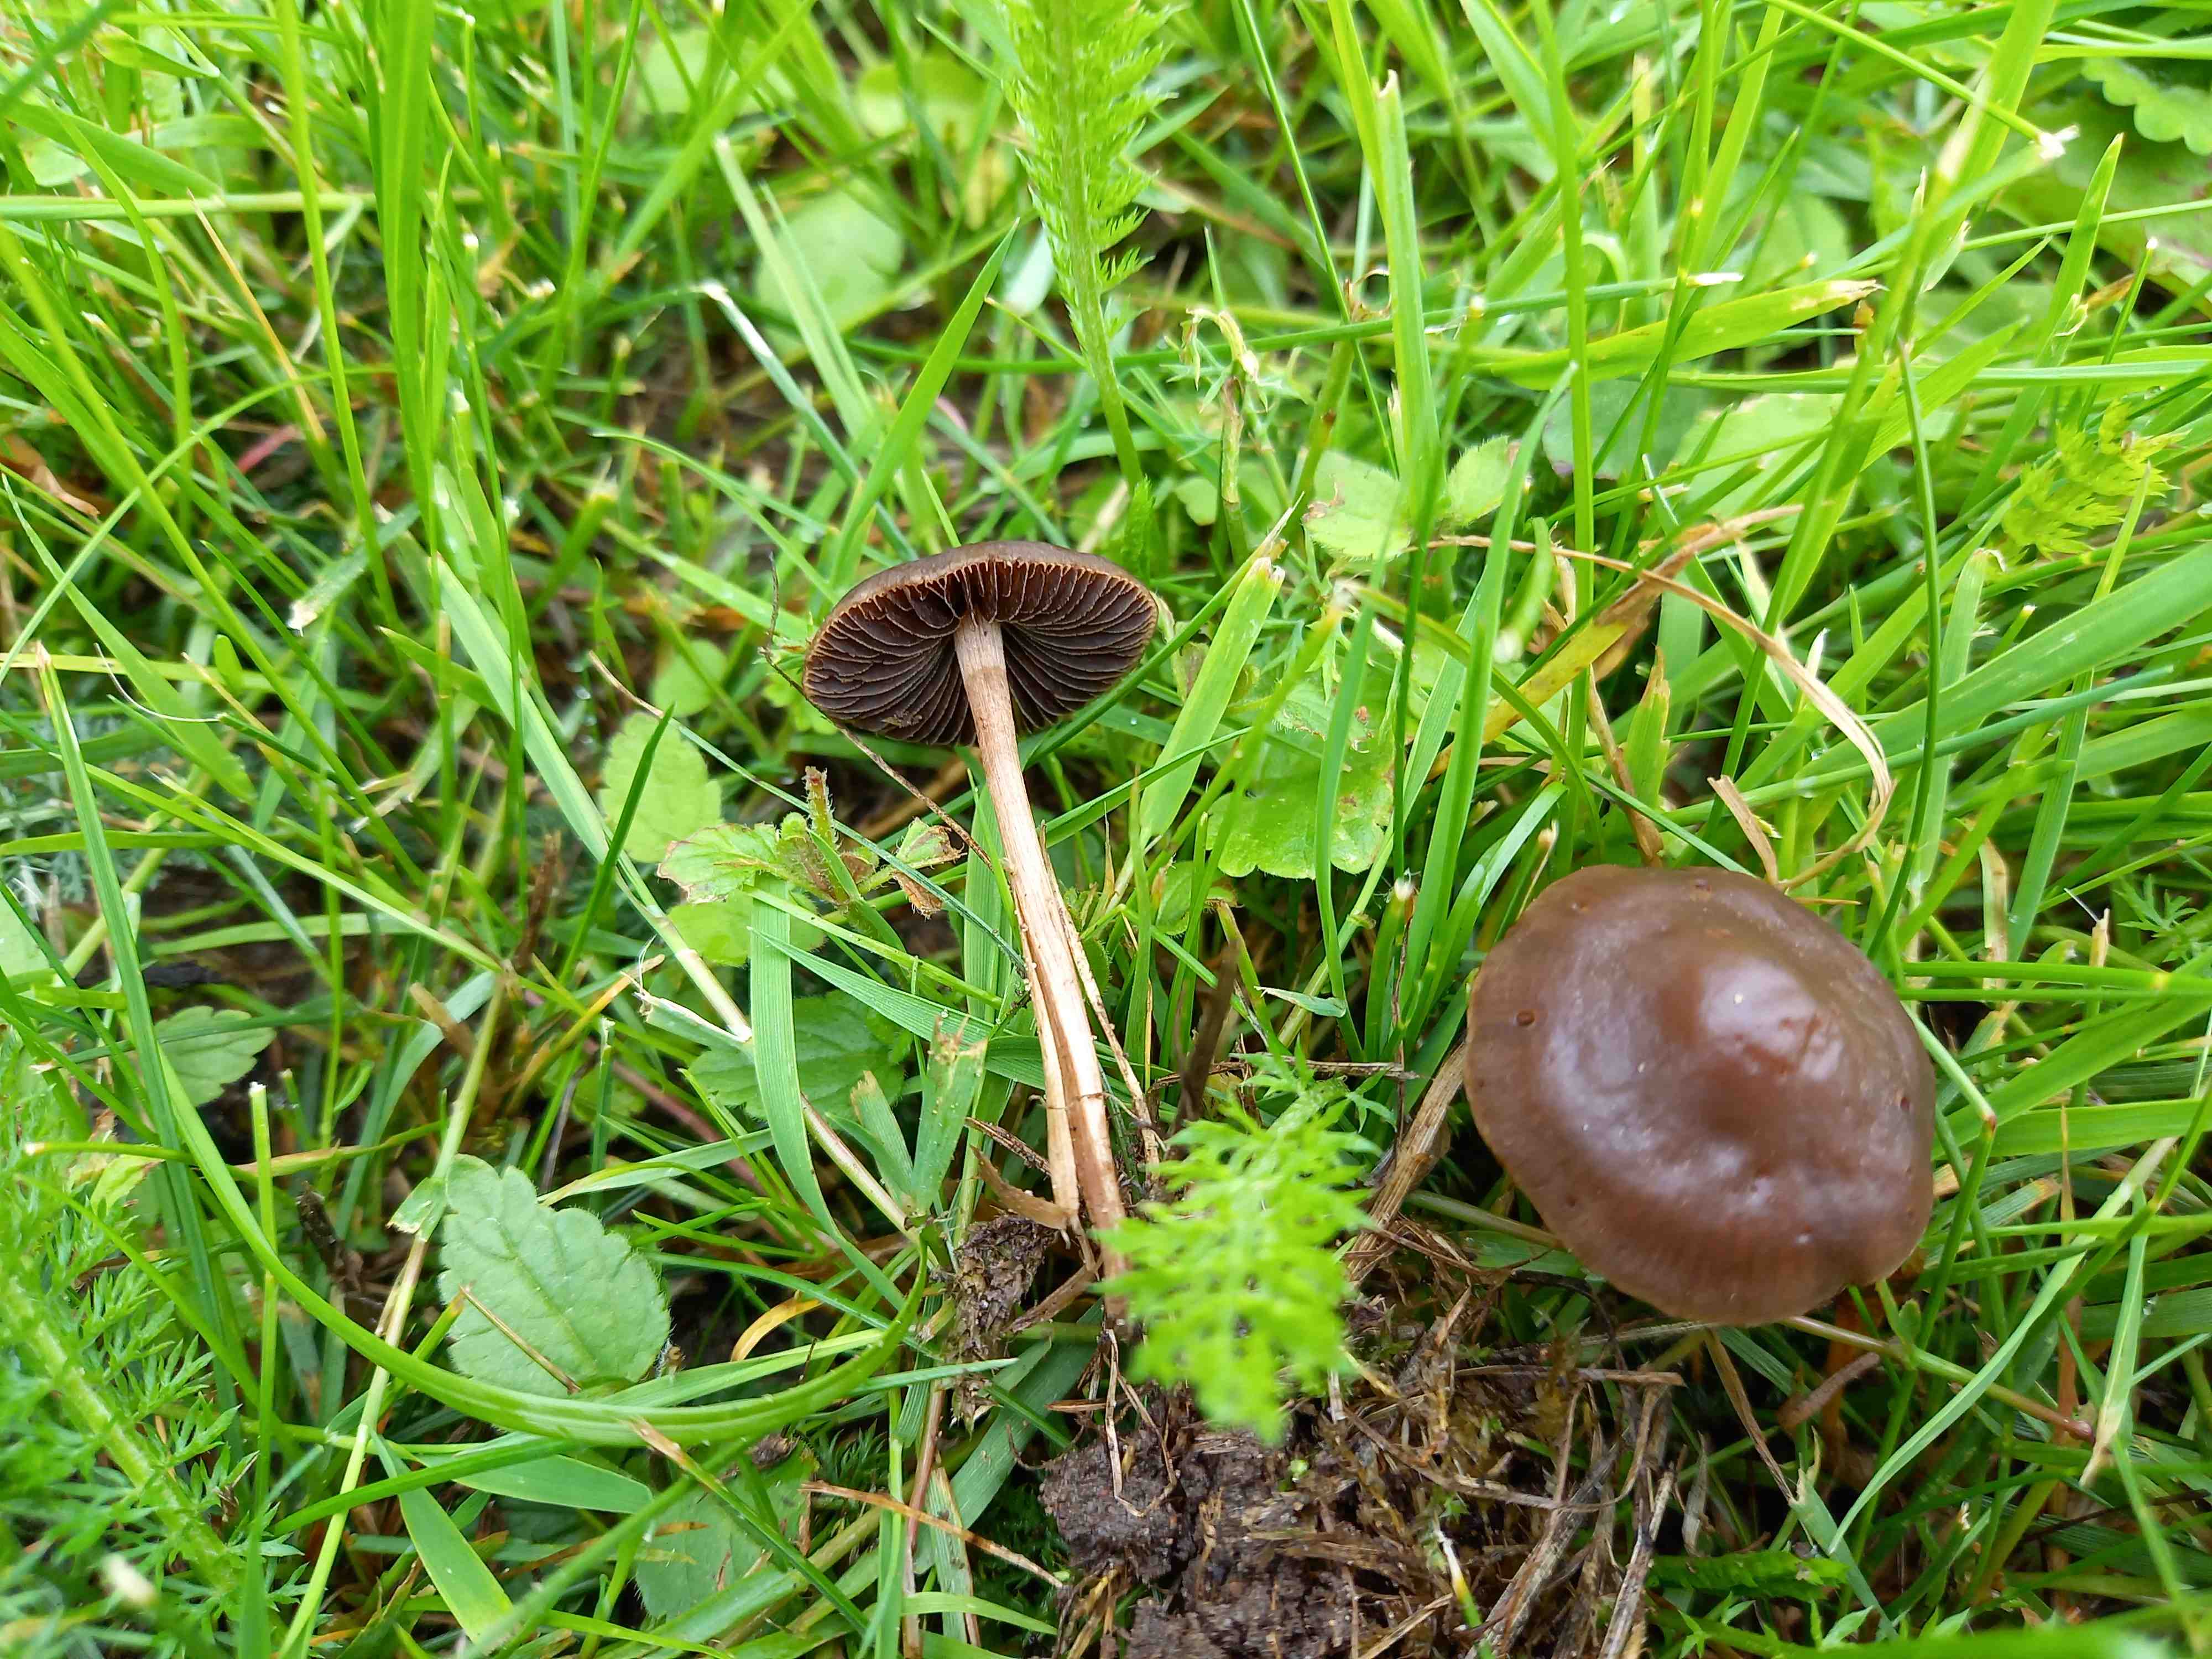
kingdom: Fungi
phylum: Basidiomycota
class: Agaricomycetes
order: Agaricales
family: Bolbitiaceae
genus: Panaeolina
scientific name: Panaeolina foenisecii
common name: høslætsvamp
